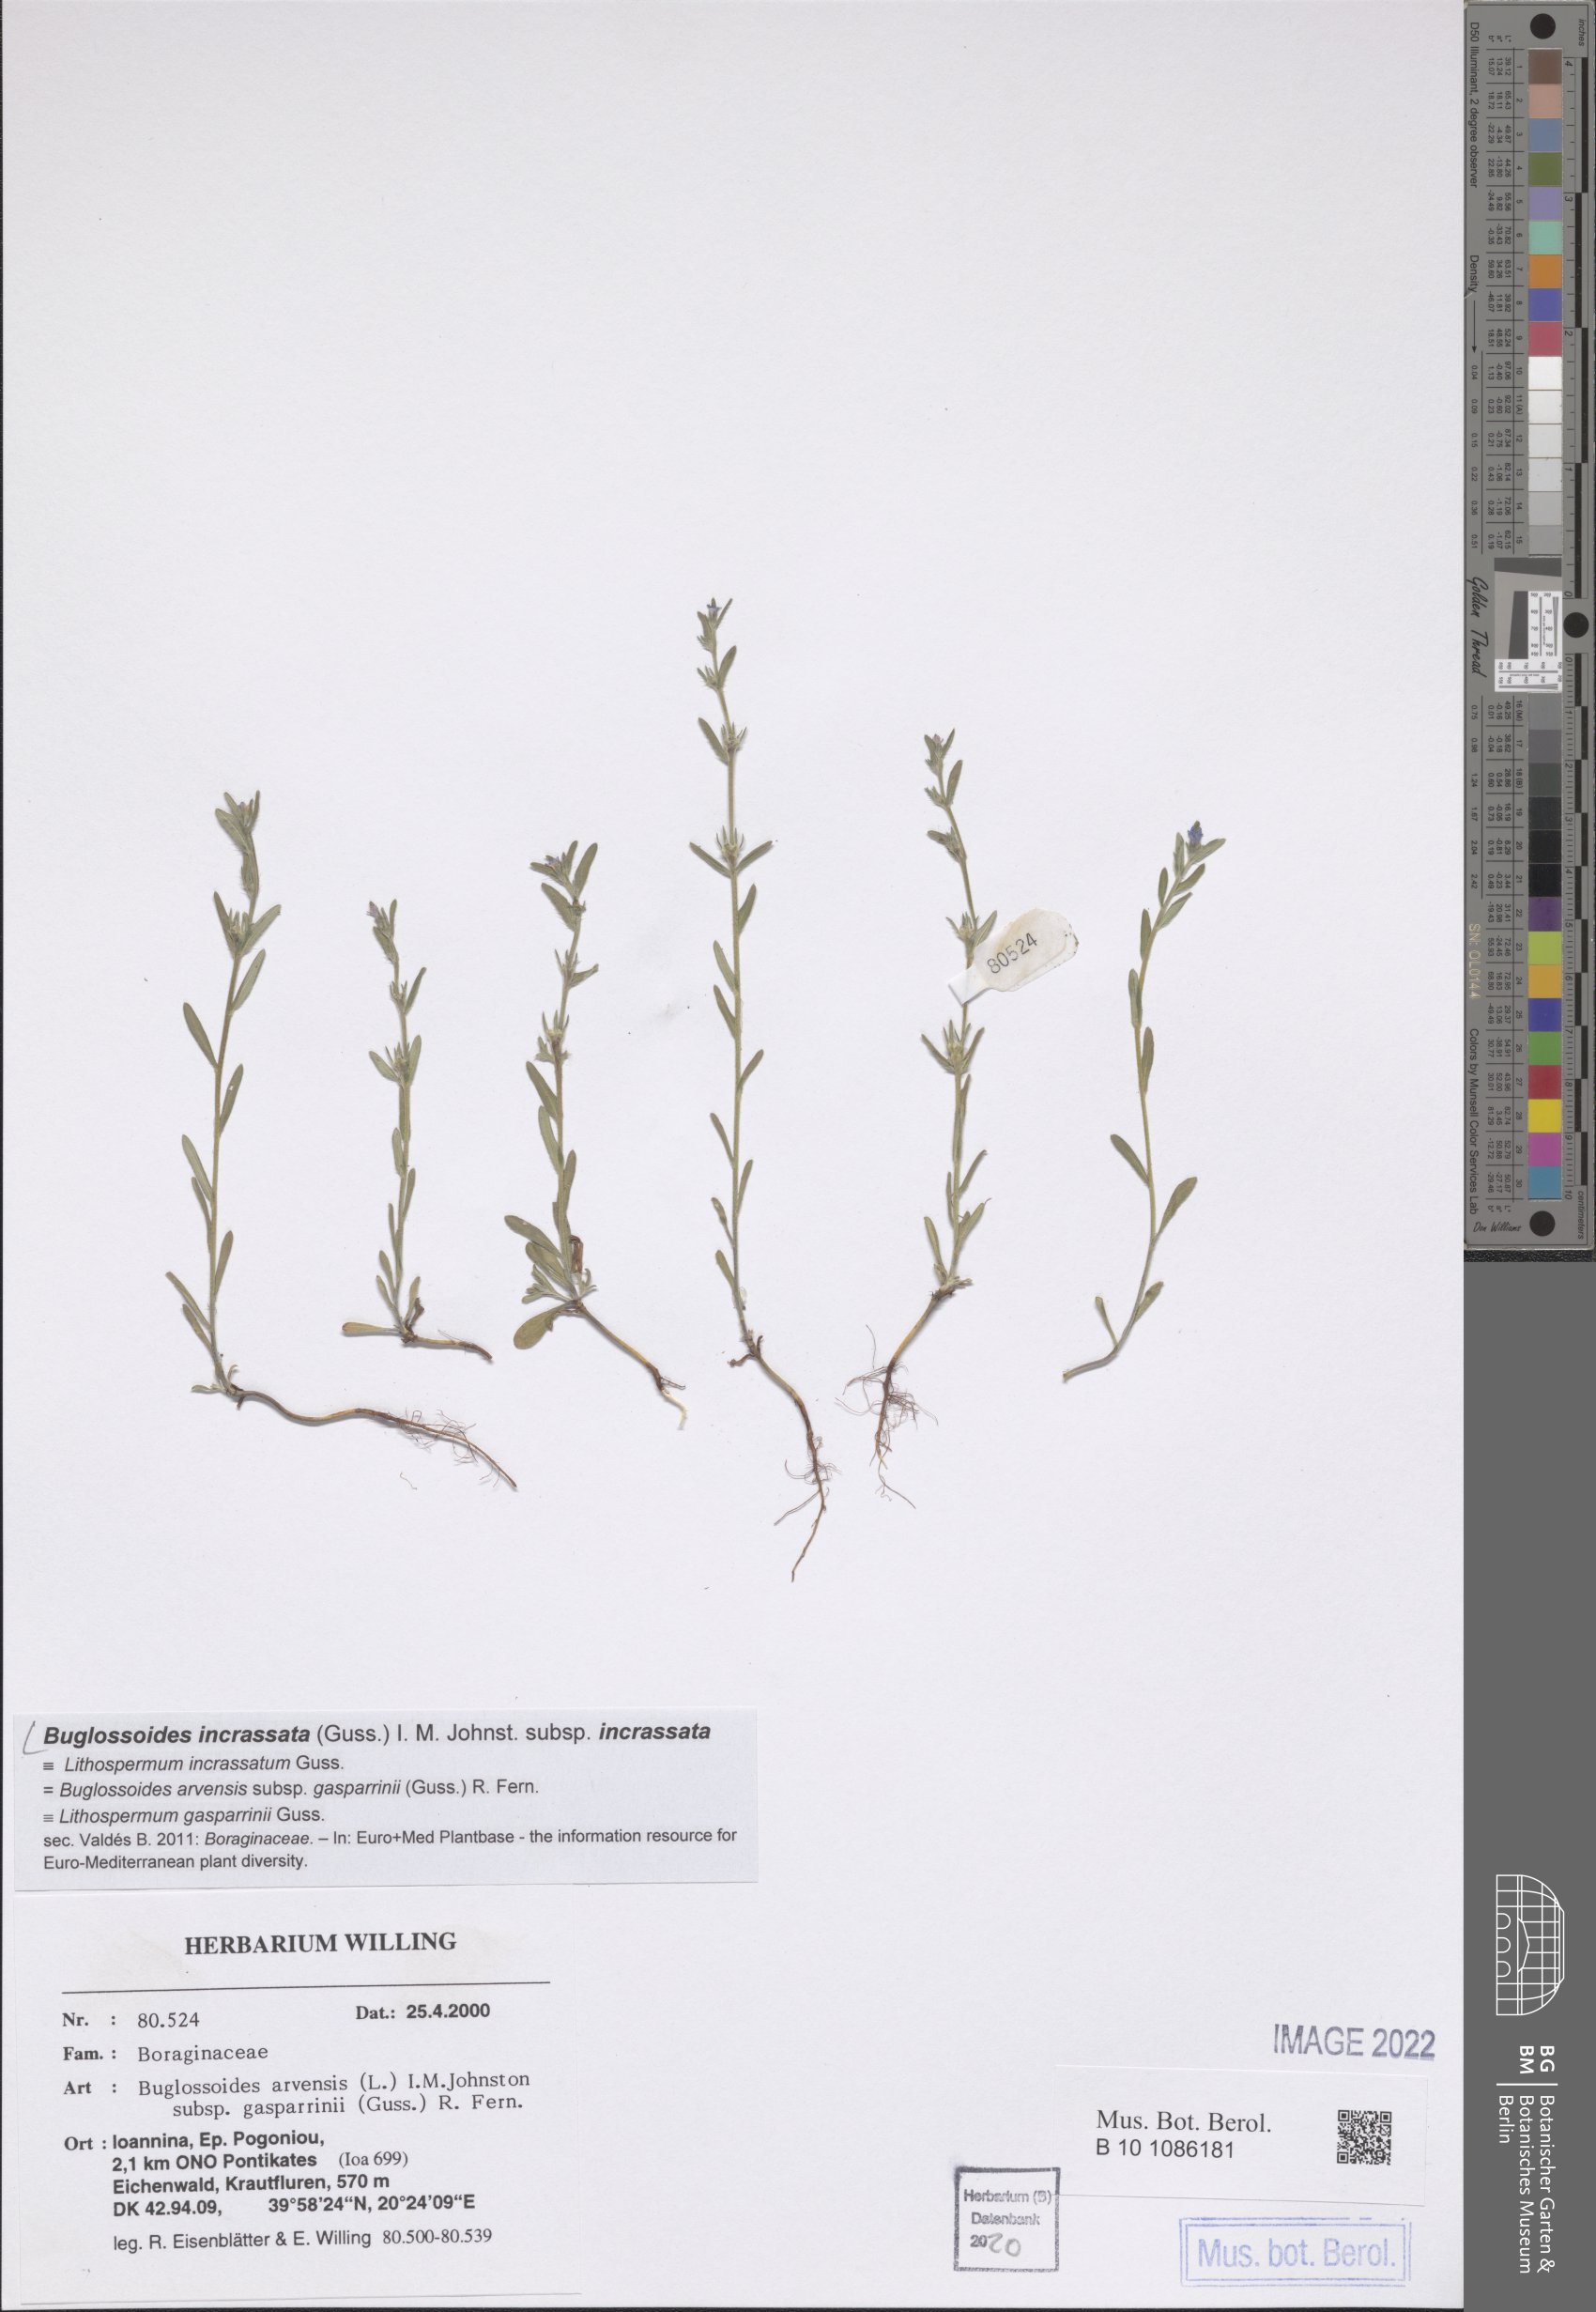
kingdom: Plantae
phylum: Tracheophyta
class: Magnoliopsida
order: Boraginales
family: Boraginaceae
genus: Buglossoides
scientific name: Buglossoides incrassata
